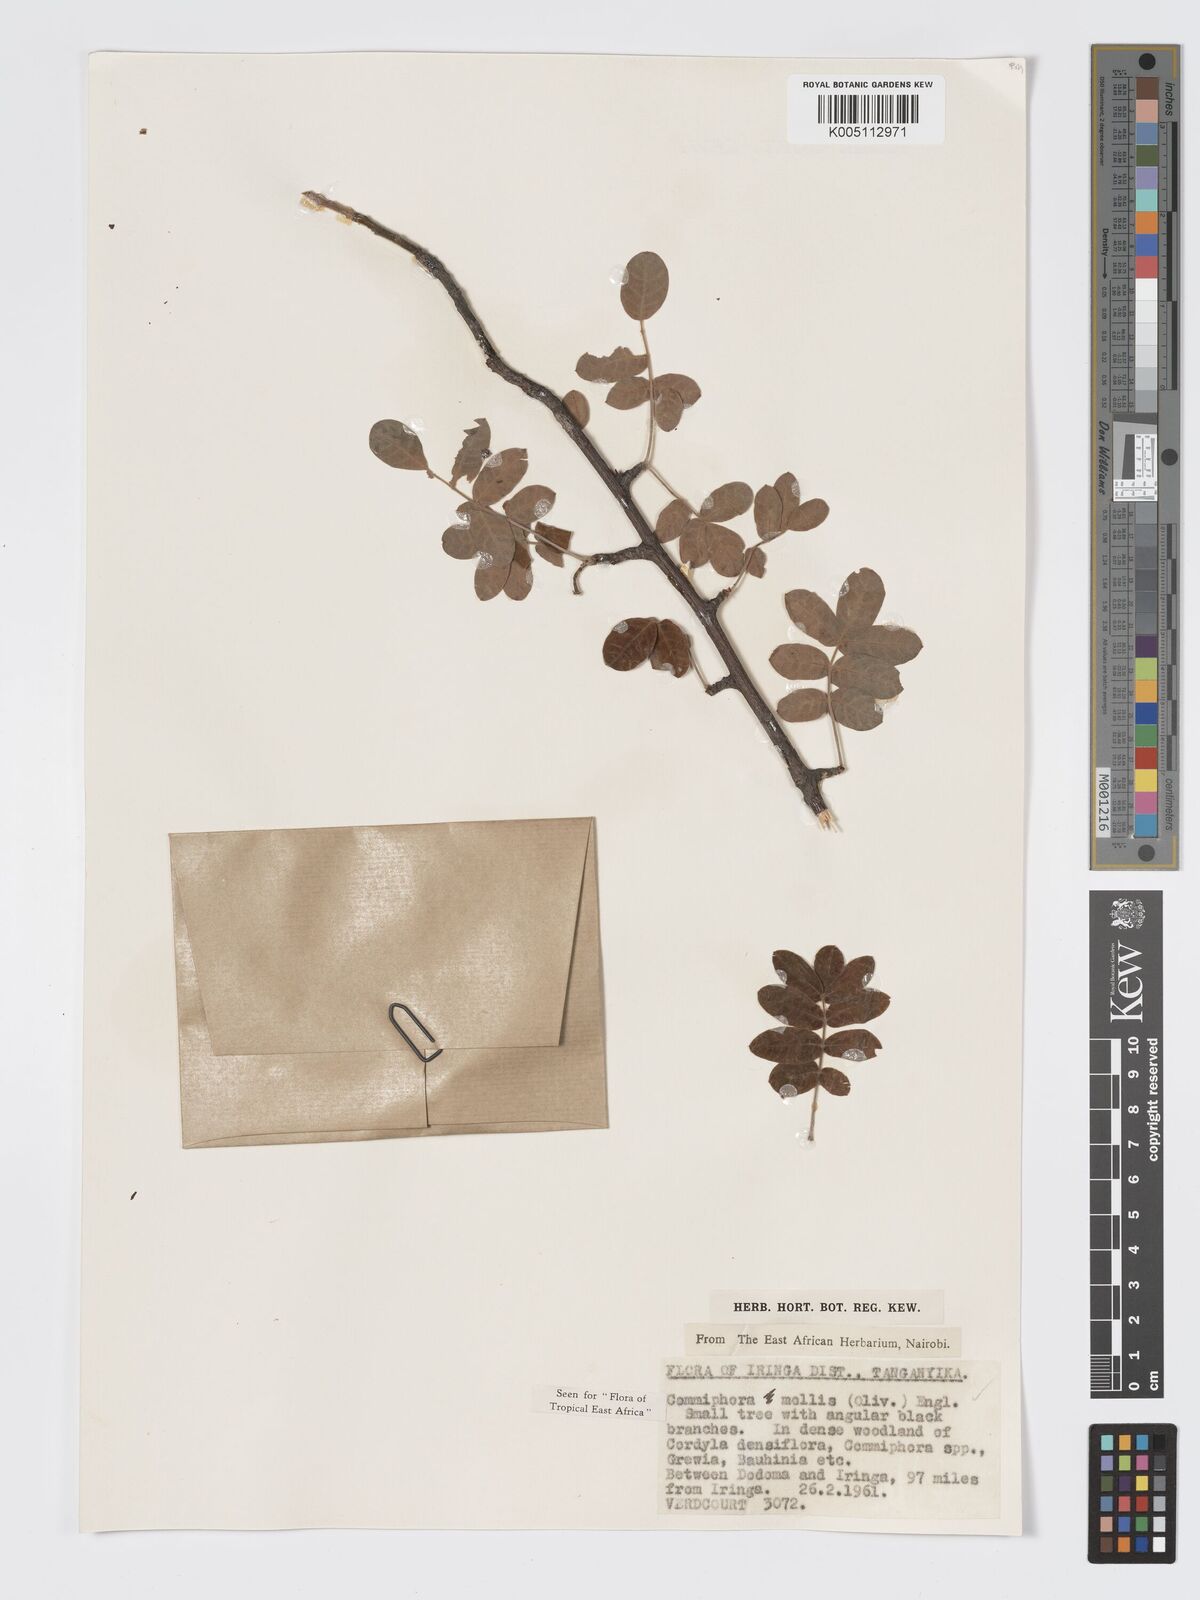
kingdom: Plantae
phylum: Tracheophyta
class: Magnoliopsida
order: Sapindales
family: Burseraceae
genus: Commiphora
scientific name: Commiphora
